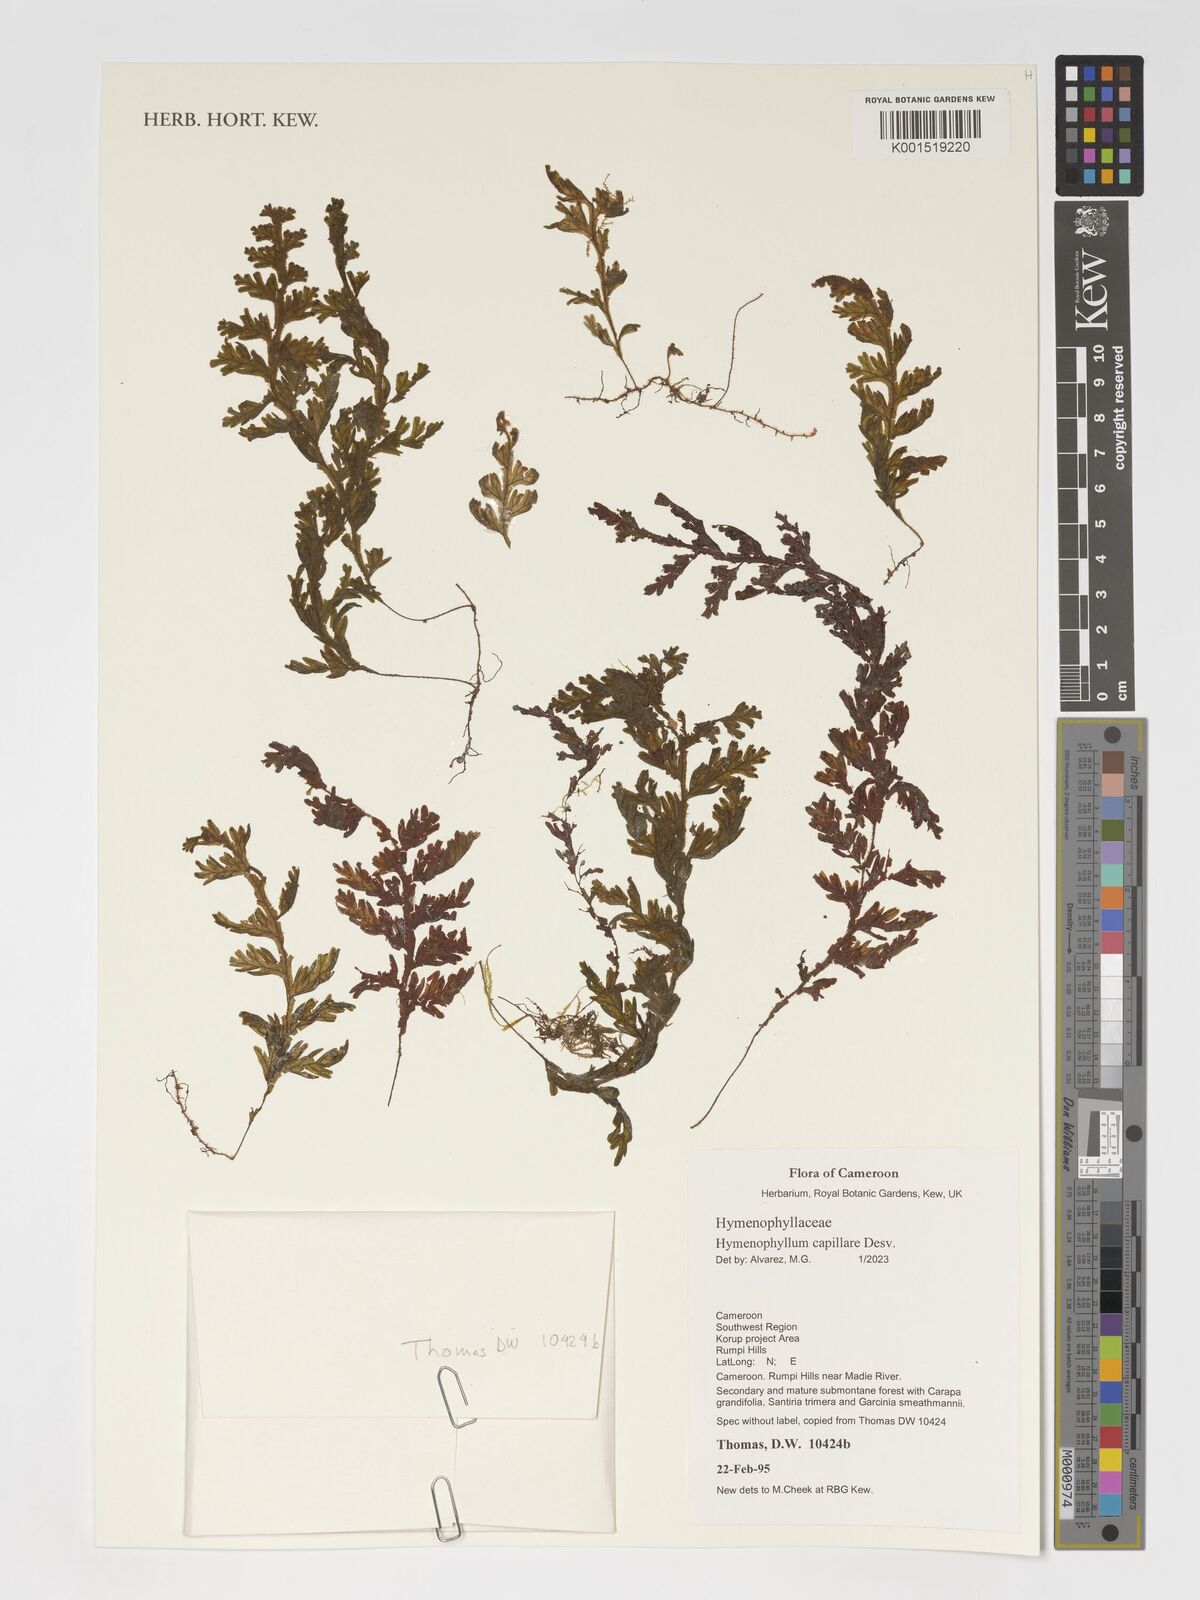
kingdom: Plantae
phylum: Tracheophyta
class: Polypodiopsida
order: Hymenophyllales
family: Hymenophyllaceae
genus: Hymenophyllum
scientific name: Hymenophyllum capillare
